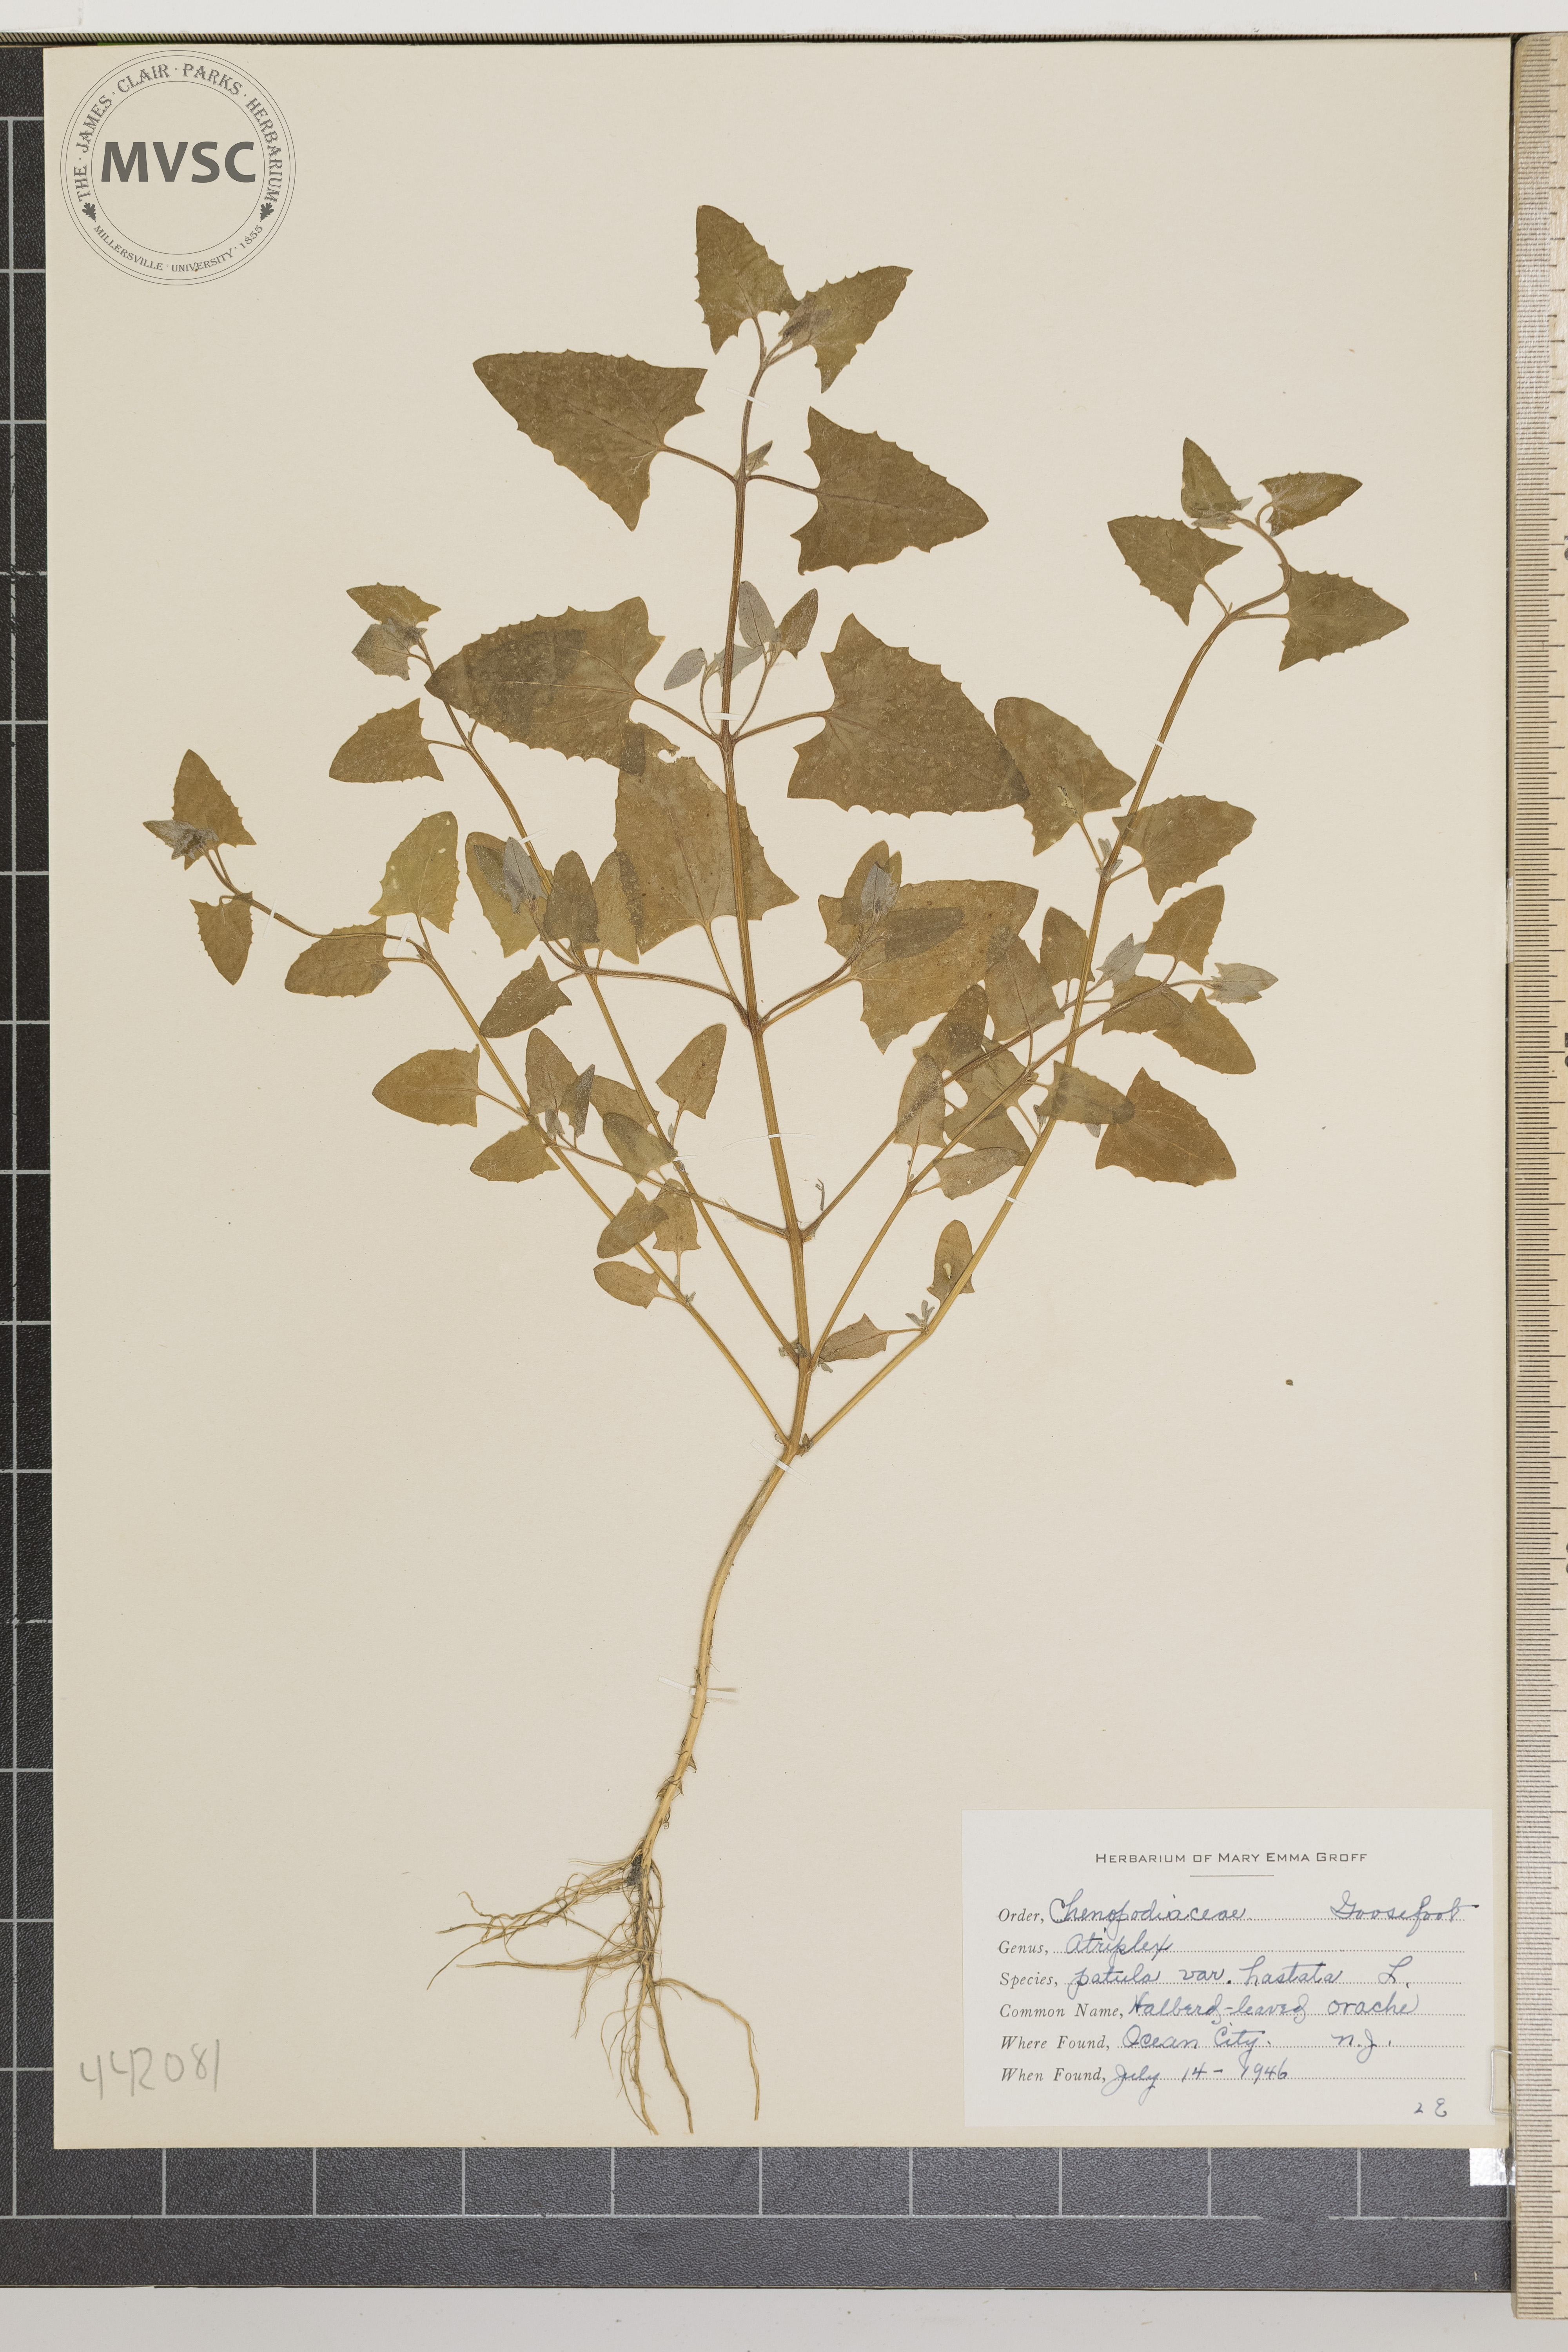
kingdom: Plantae
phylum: Tracheophyta
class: Magnoliopsida
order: Caryophyllales
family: Amaranthaceae
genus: Atriplex
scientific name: Atriplex patula
